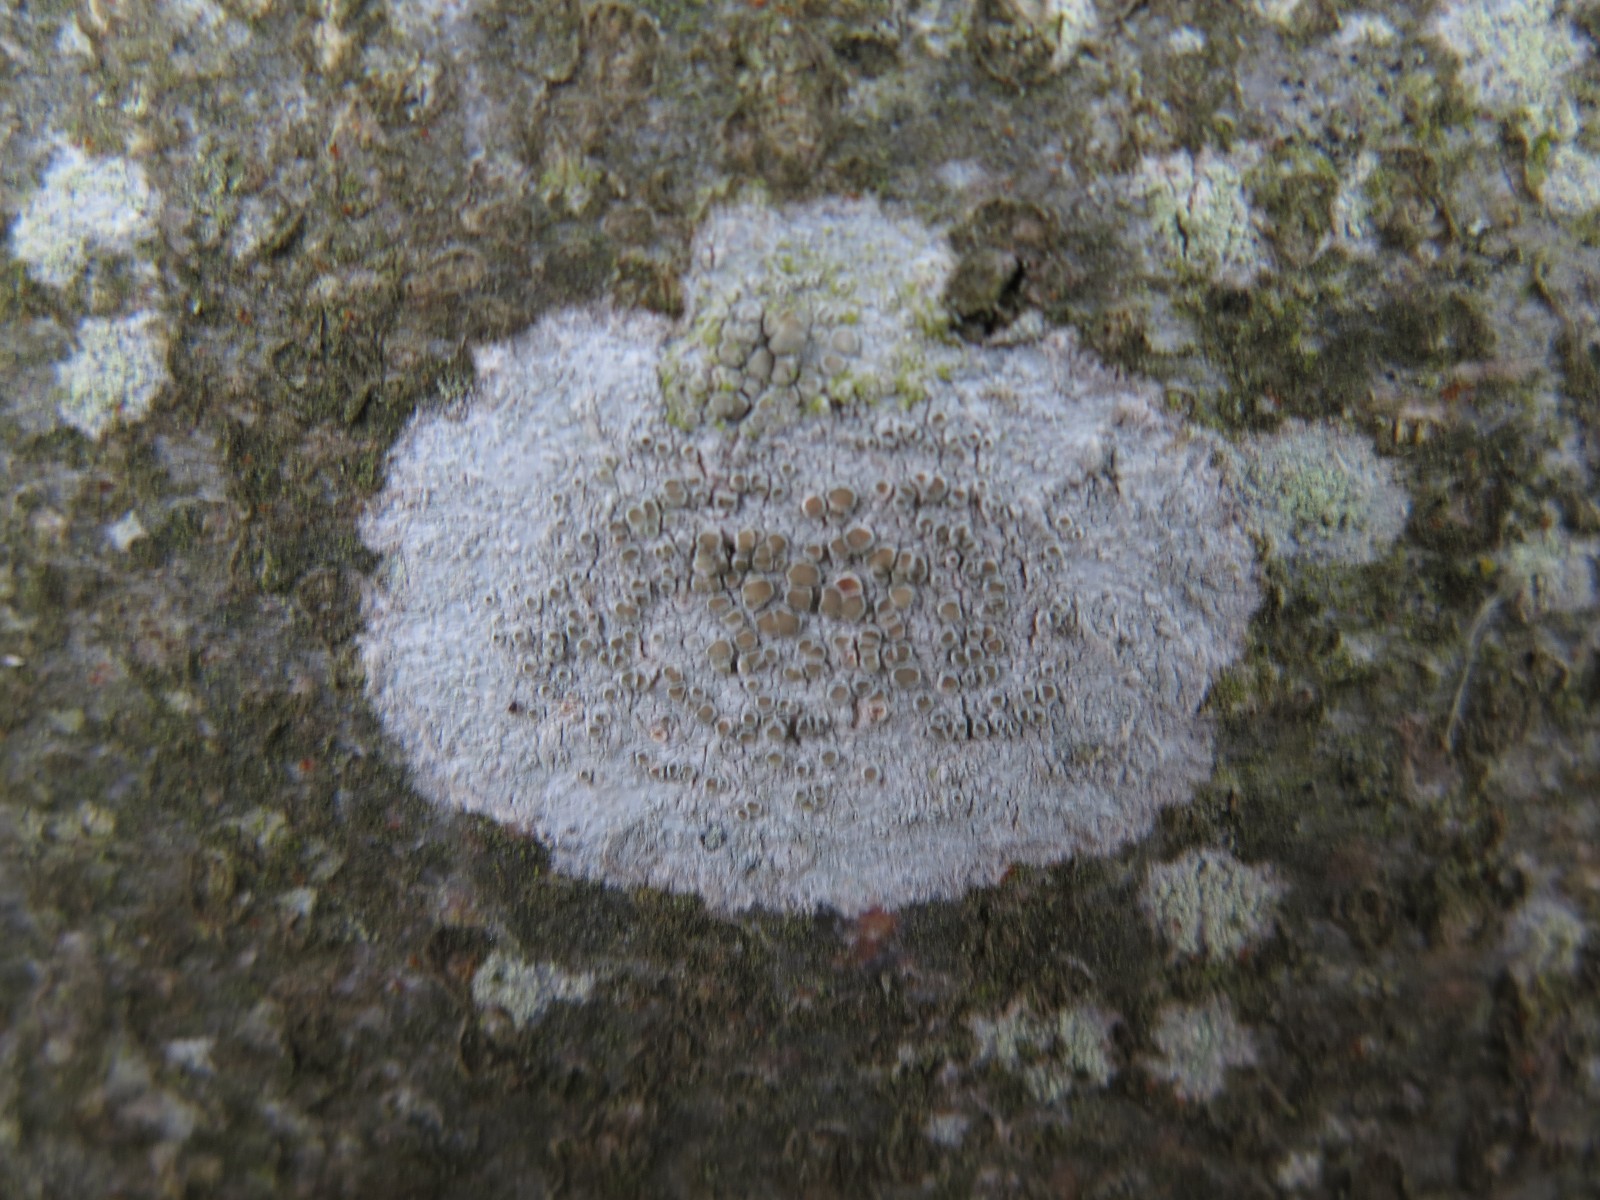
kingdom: Fungi
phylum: Ascomycota
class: Lecanoromycetes
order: Lecanorales
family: Lecanoraceae
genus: Lecanora
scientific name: Lecanora chlarotera
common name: brun kantskivelav
